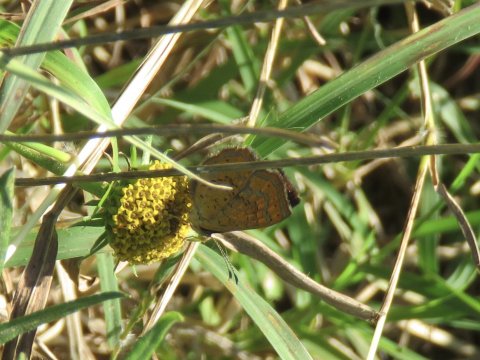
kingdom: Animalia
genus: Calephelis
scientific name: Calephelis perditalis
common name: Rounded Metalmark
